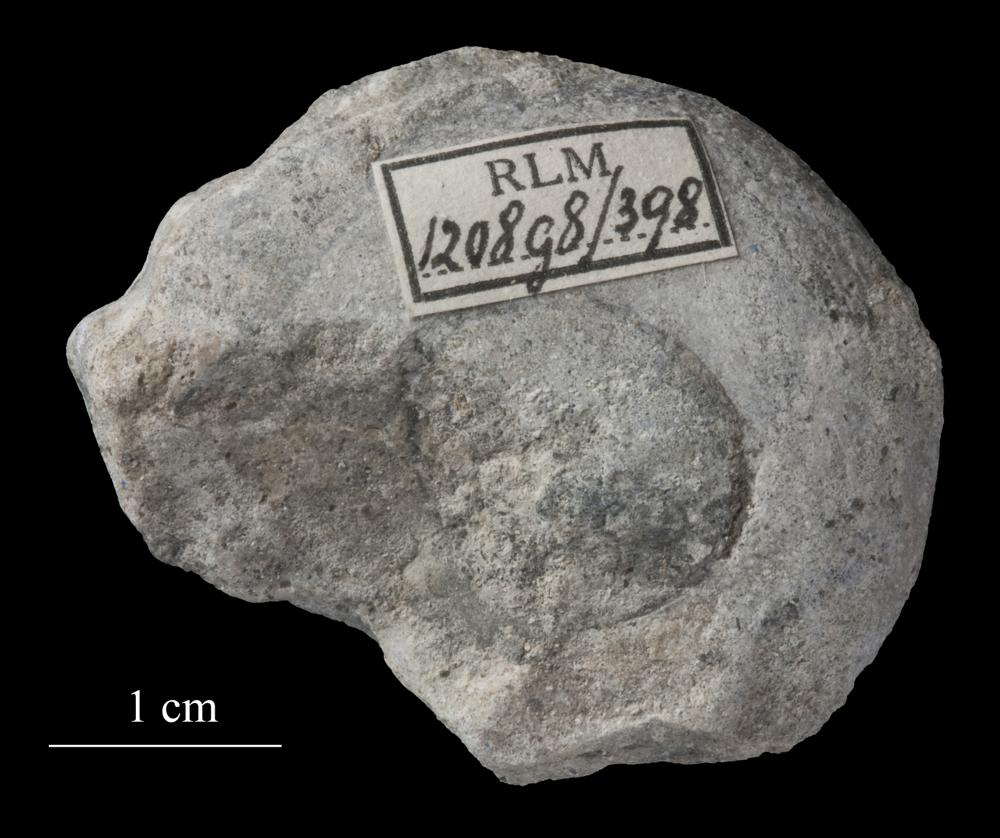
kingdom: Animalia
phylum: Mollusca
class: Gastropoda
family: Lesueurillidae
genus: Pararaphistoma
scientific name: Pararaphistoma Helicites qualteriata
